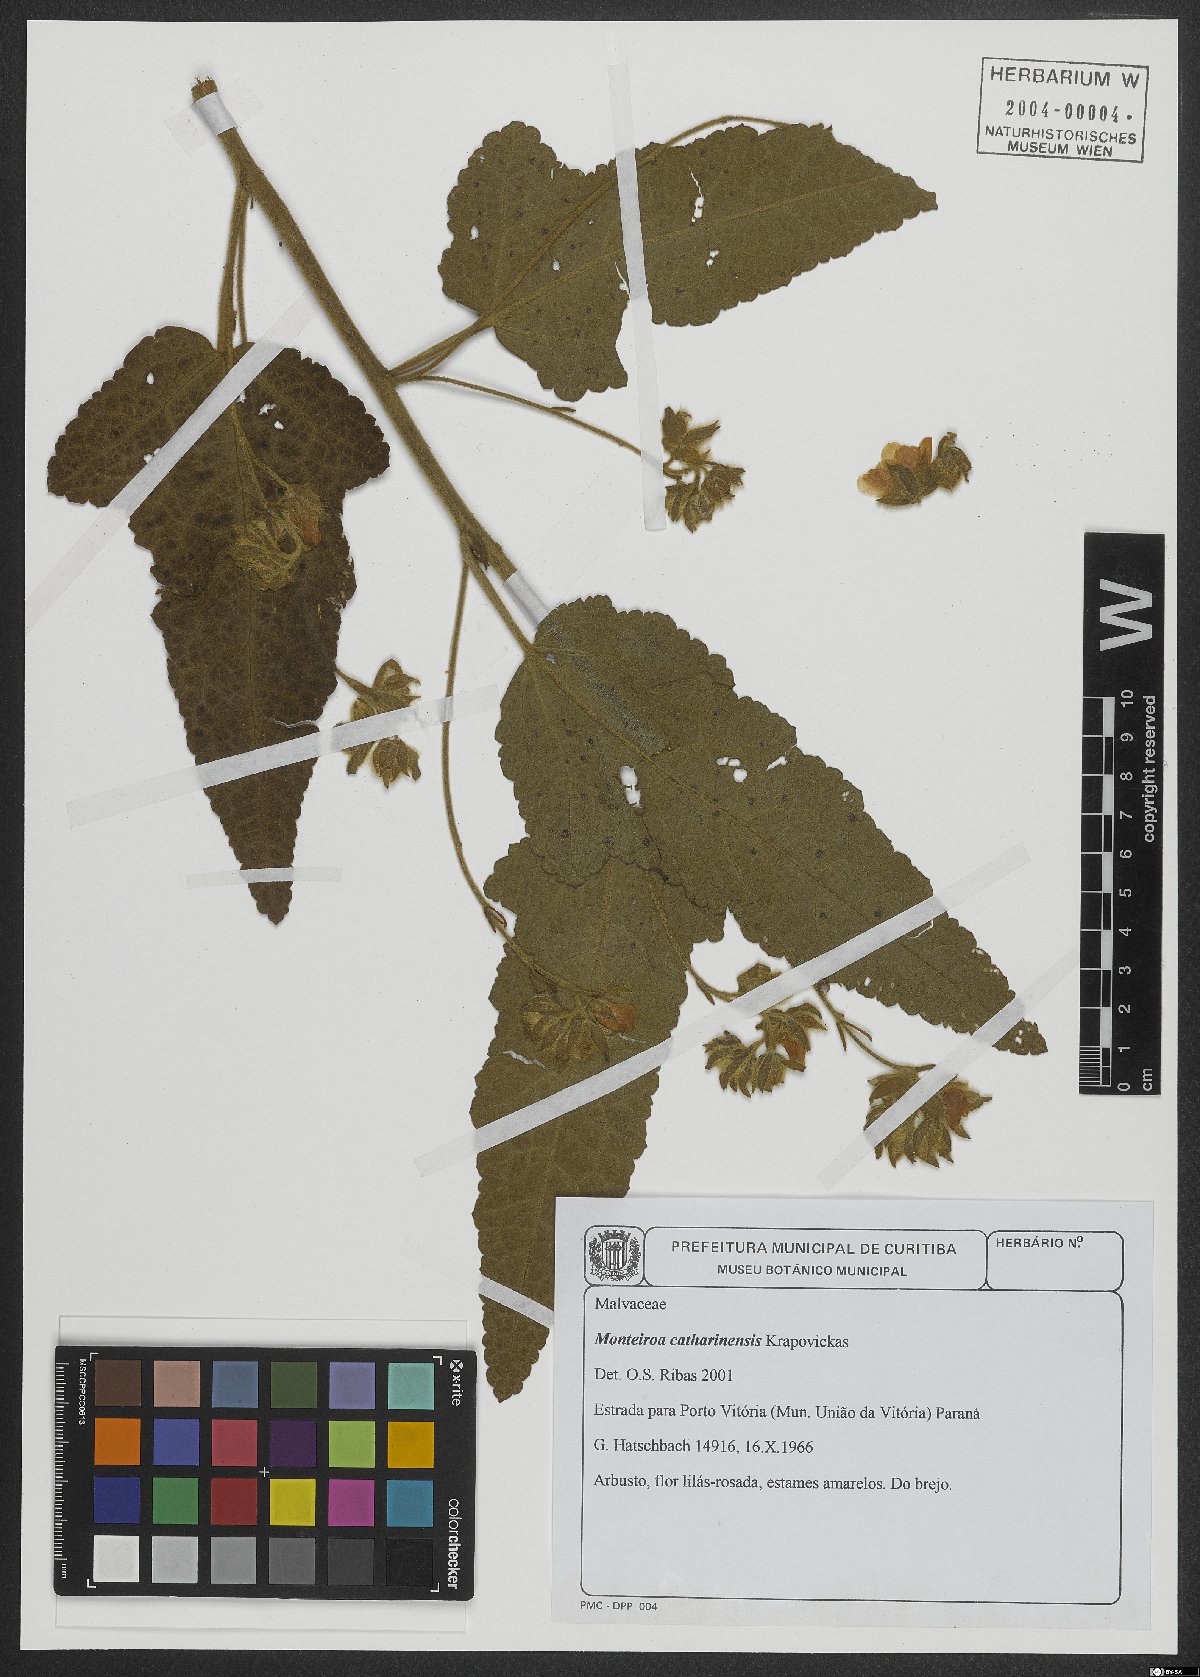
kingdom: Plantae
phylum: Tracheophyta
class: Magnoliopsida
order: Malvales
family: Malvaceae
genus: Monteiroa
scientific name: Monteiroa catharinensis
